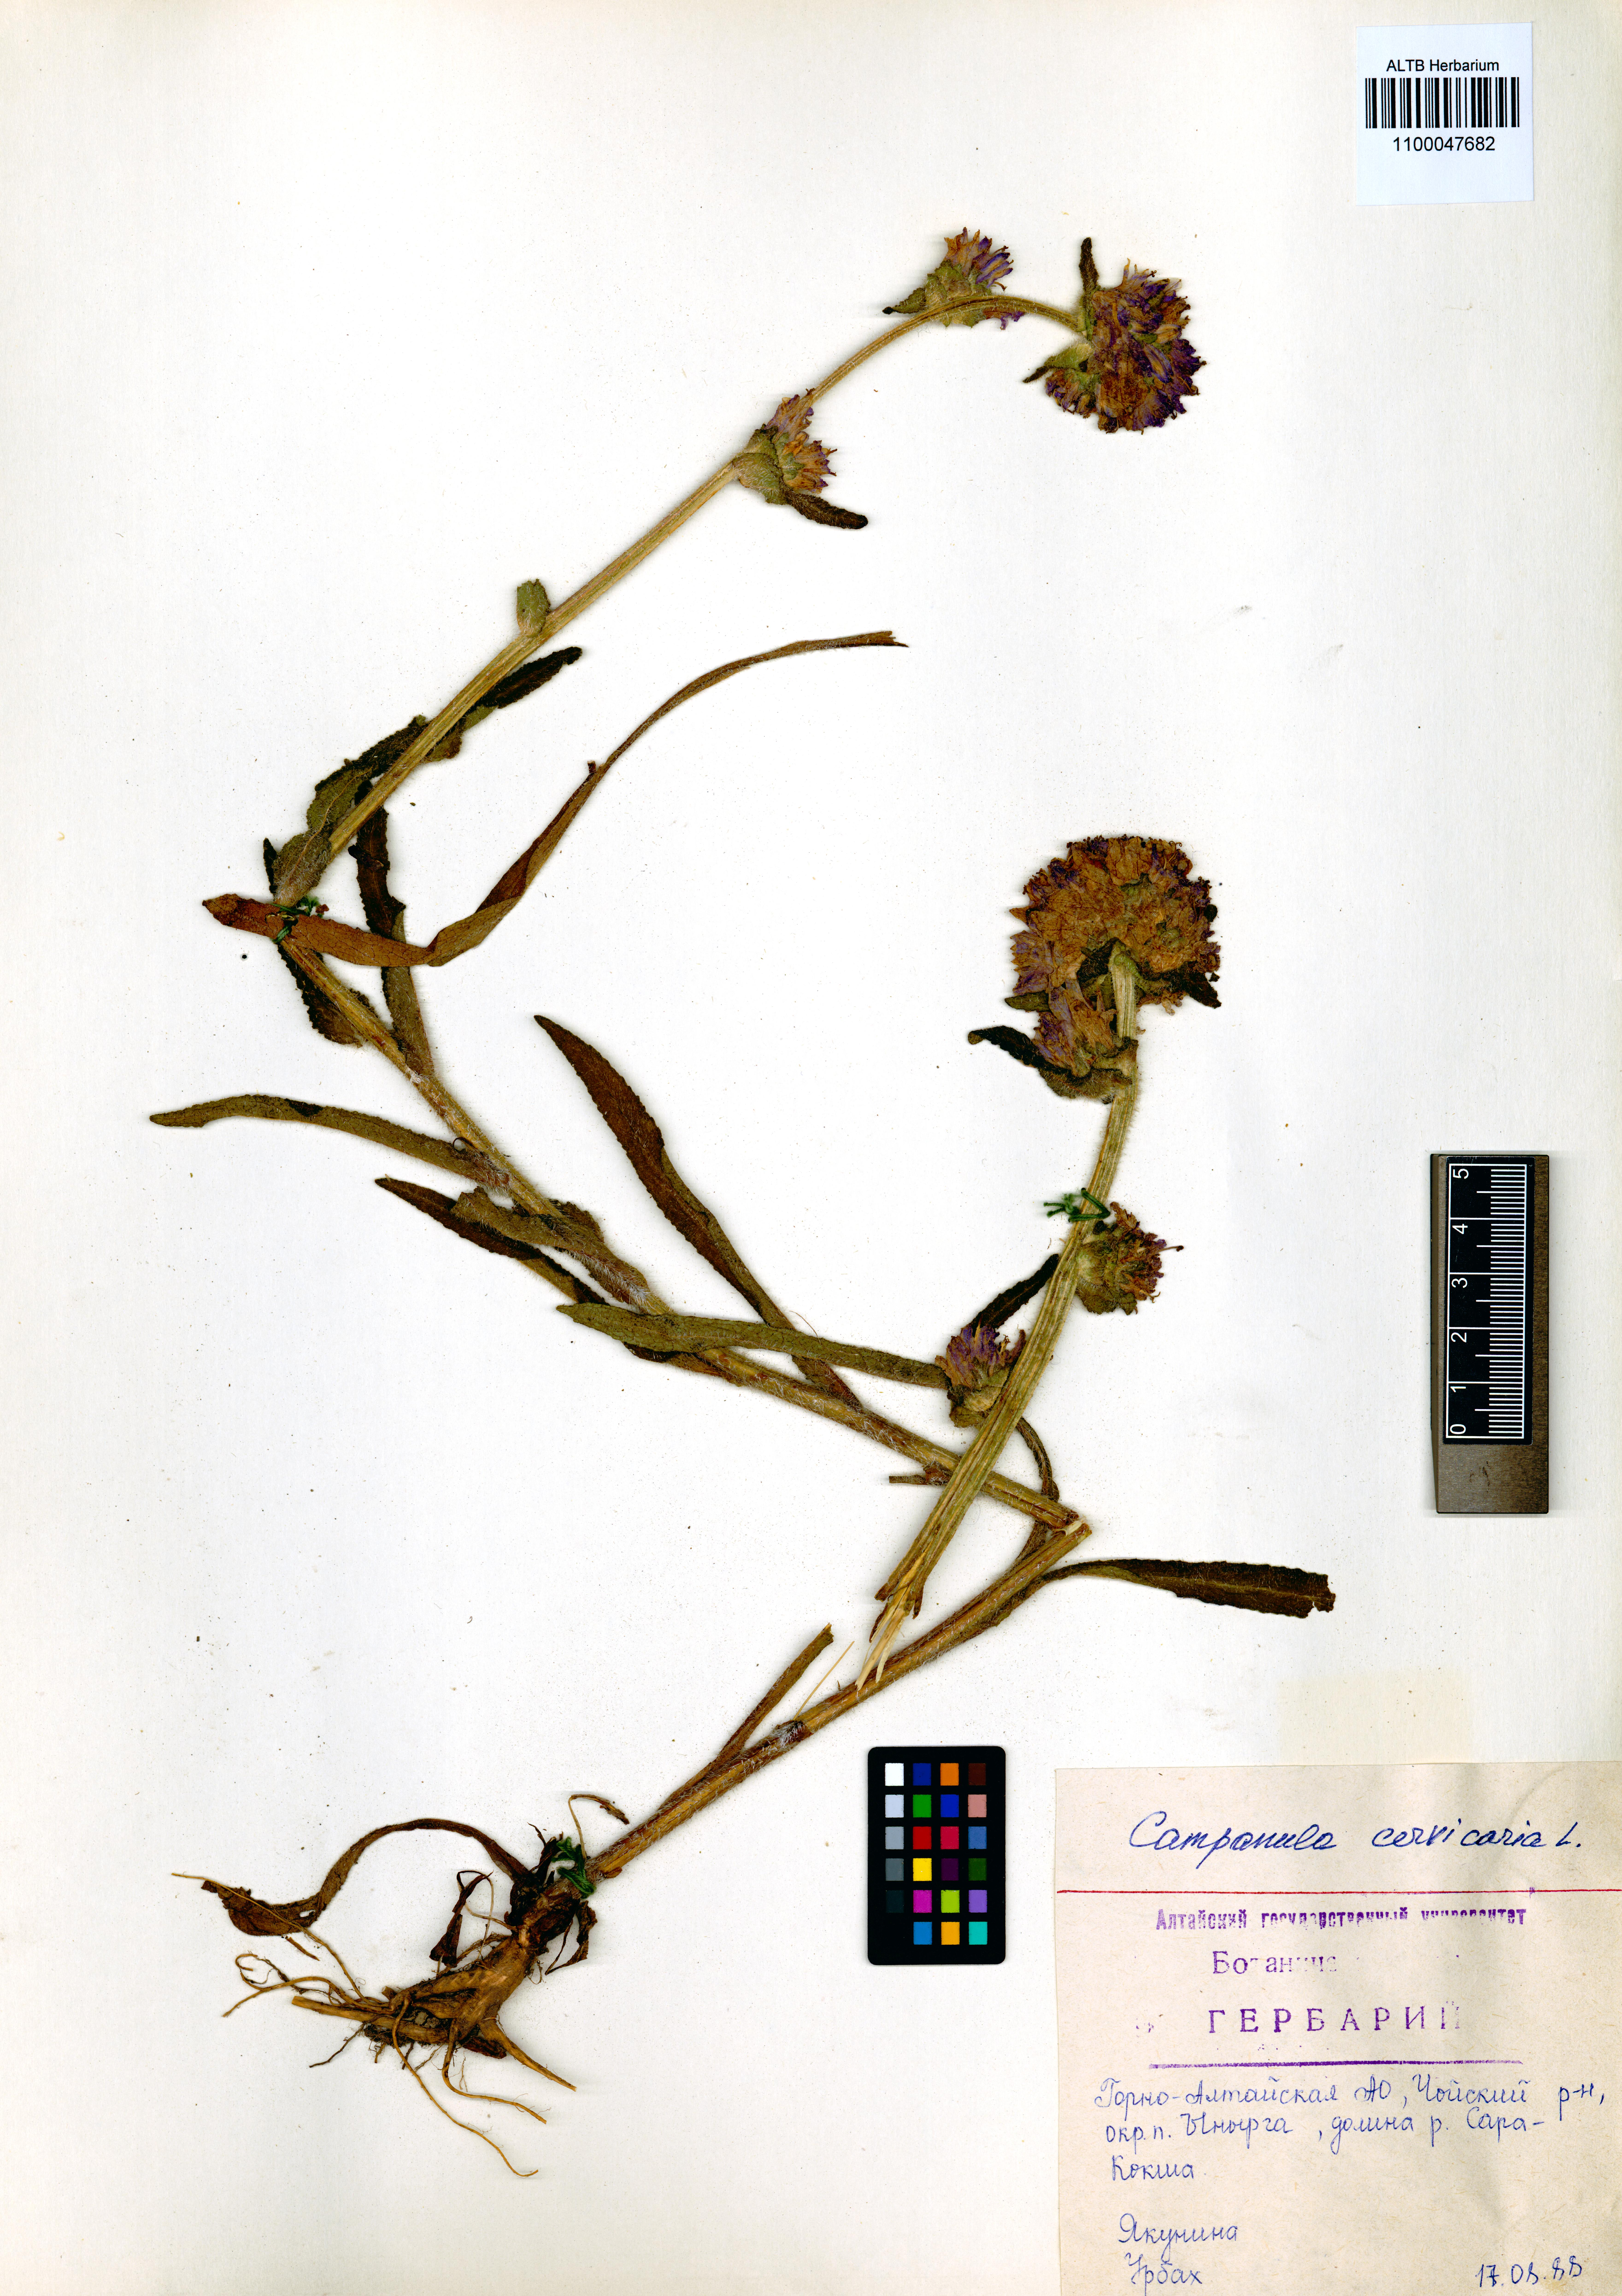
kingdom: Plantae
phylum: Tracheophyta
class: Magnoliopsida
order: Asterales
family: Campanulaceae
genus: Campanula
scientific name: Campanula cervicaria
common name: Bristly bellflower
